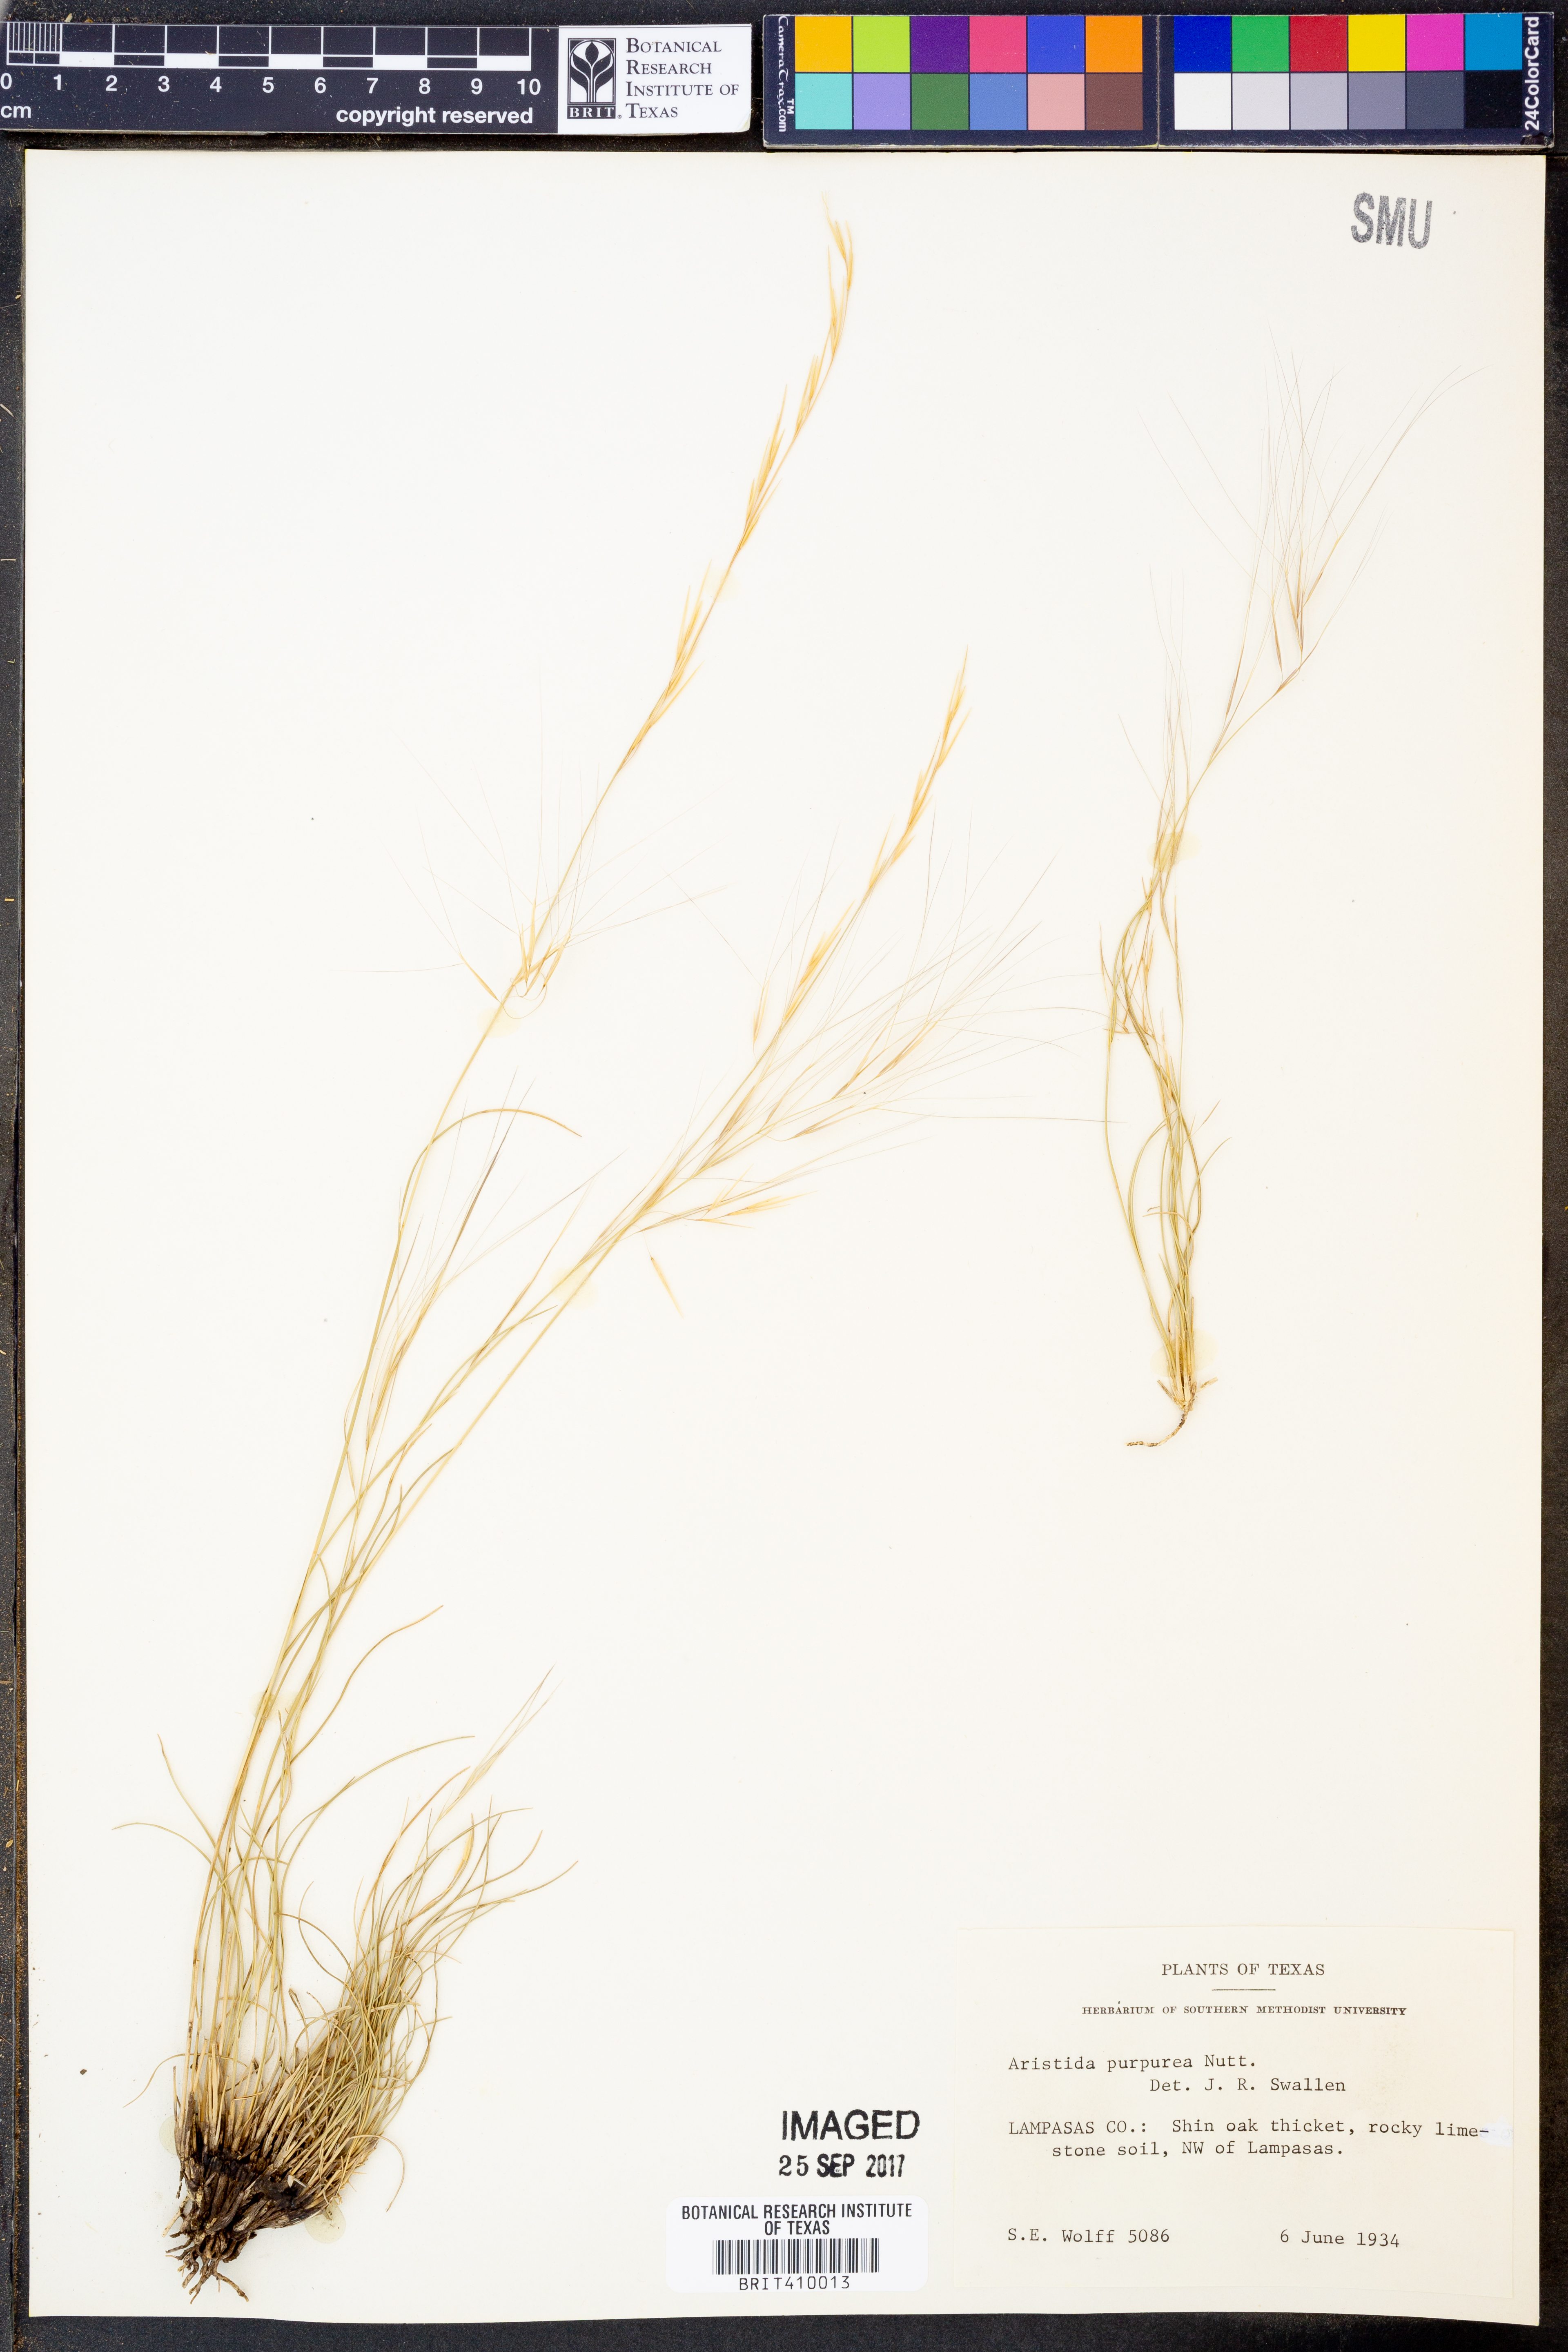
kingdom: Plantae
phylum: Tracheophyta
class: Liliopsida
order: Poales
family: Poaceae
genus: Aristida
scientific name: Aristida purpurea
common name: Purple threeawn
